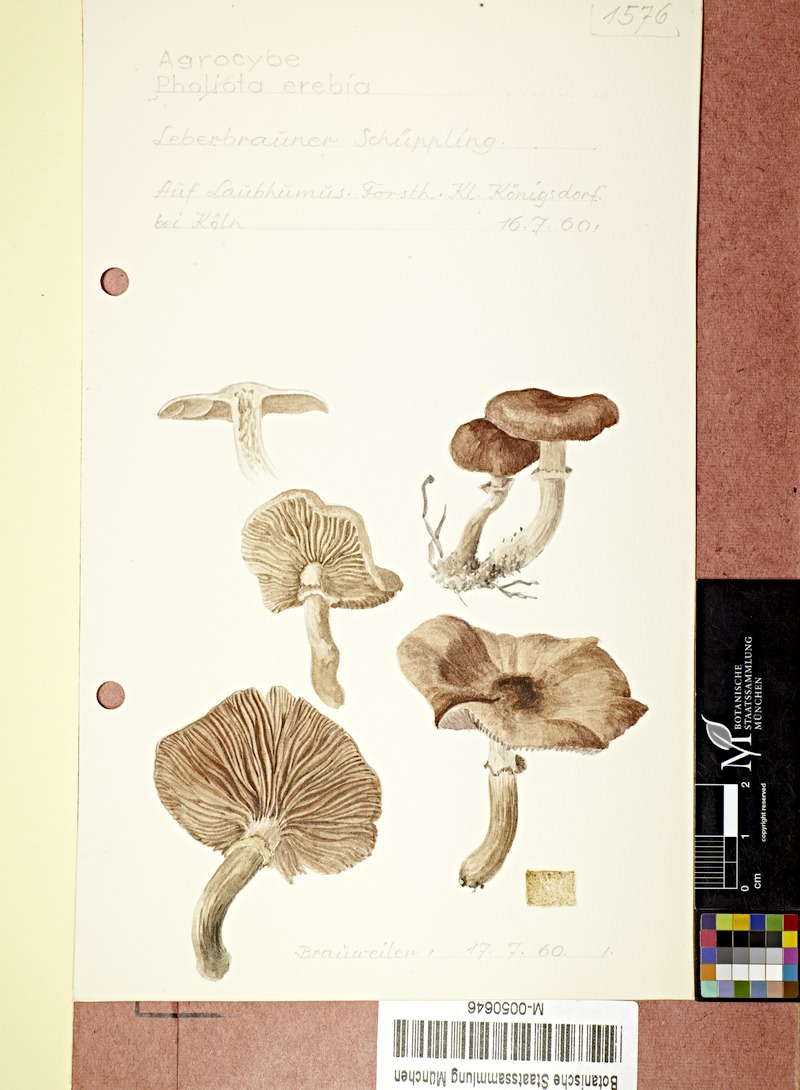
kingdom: Fungi
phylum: Basidiomycota
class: Agaricomycetes
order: Agaricales
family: Tubariaceae
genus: Cyclocybe
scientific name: Cyclocybe erebia
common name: Dark fieldcap
